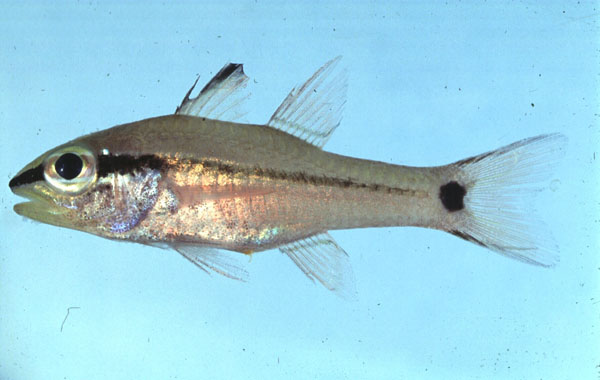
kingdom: Animalia
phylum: Chordata
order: Perciformes
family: Apogonidae
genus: Pristiapogon
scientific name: Pristiapogon fraenatus
